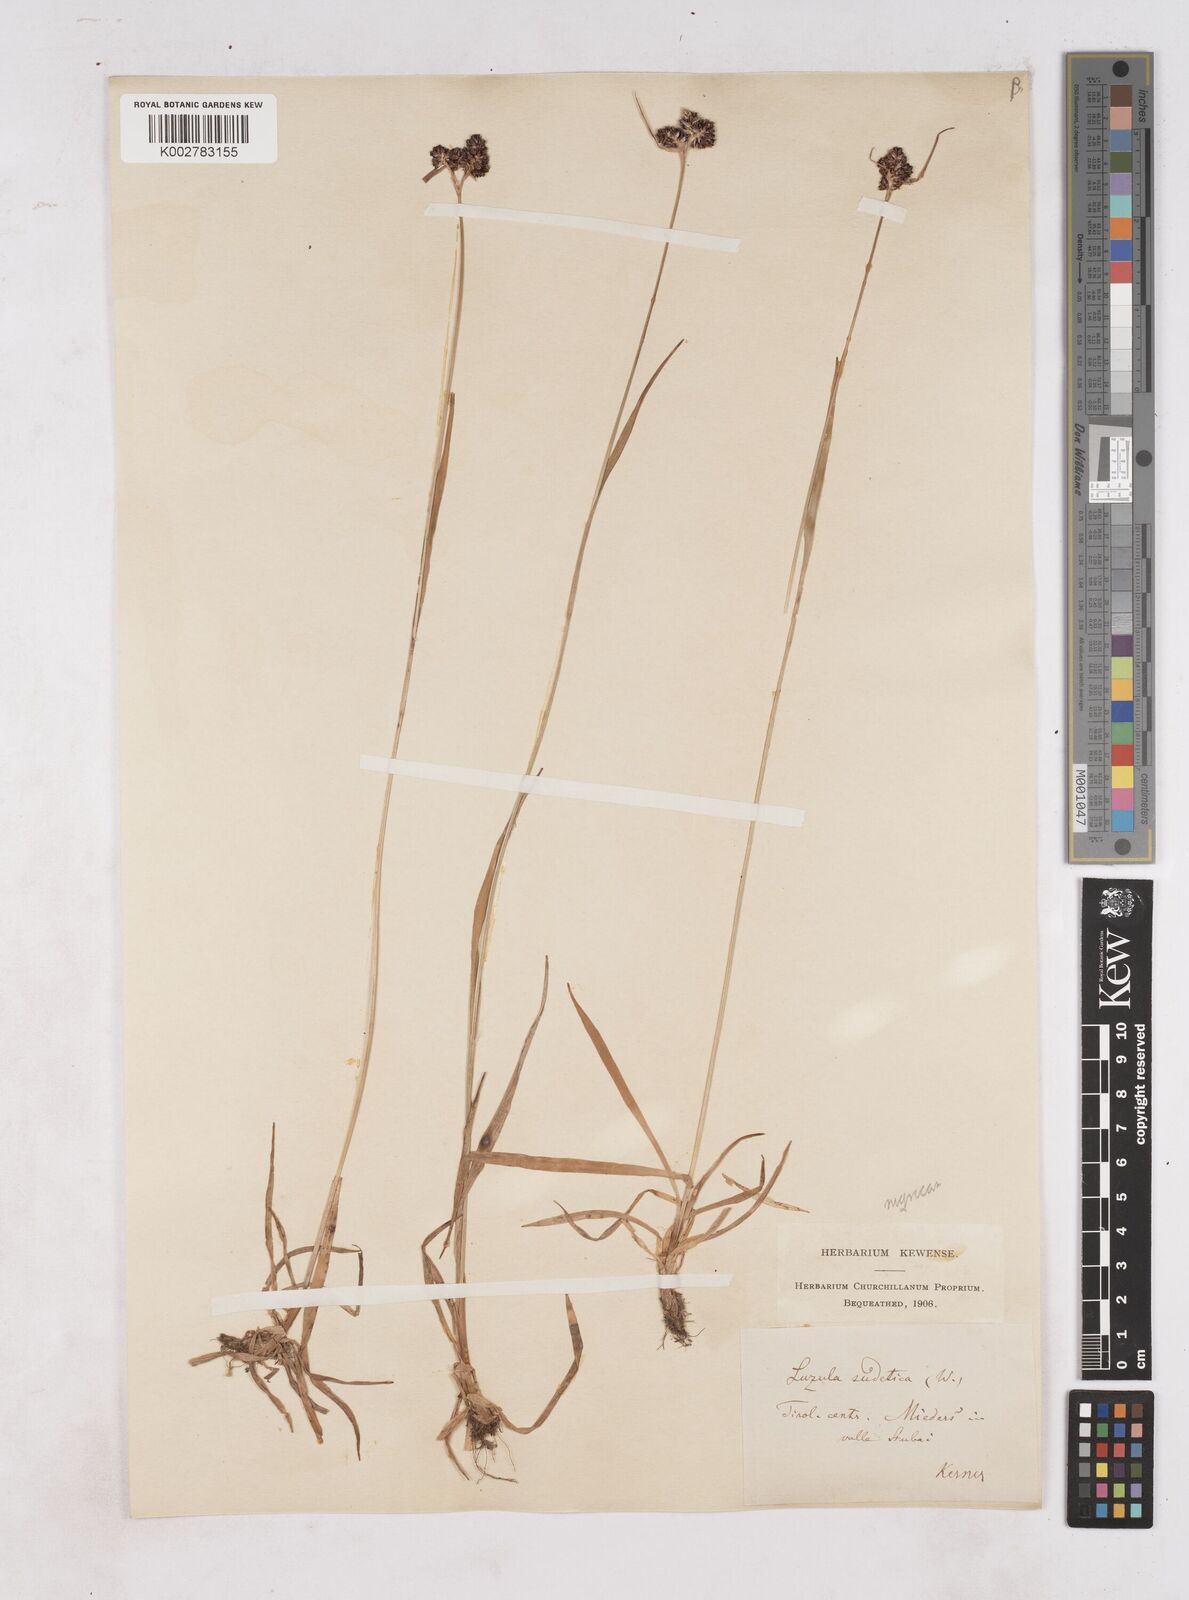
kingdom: Plantae
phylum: Tracheophyta
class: Liliopsida
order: Poales
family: Juncaceae
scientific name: Juncaceae
